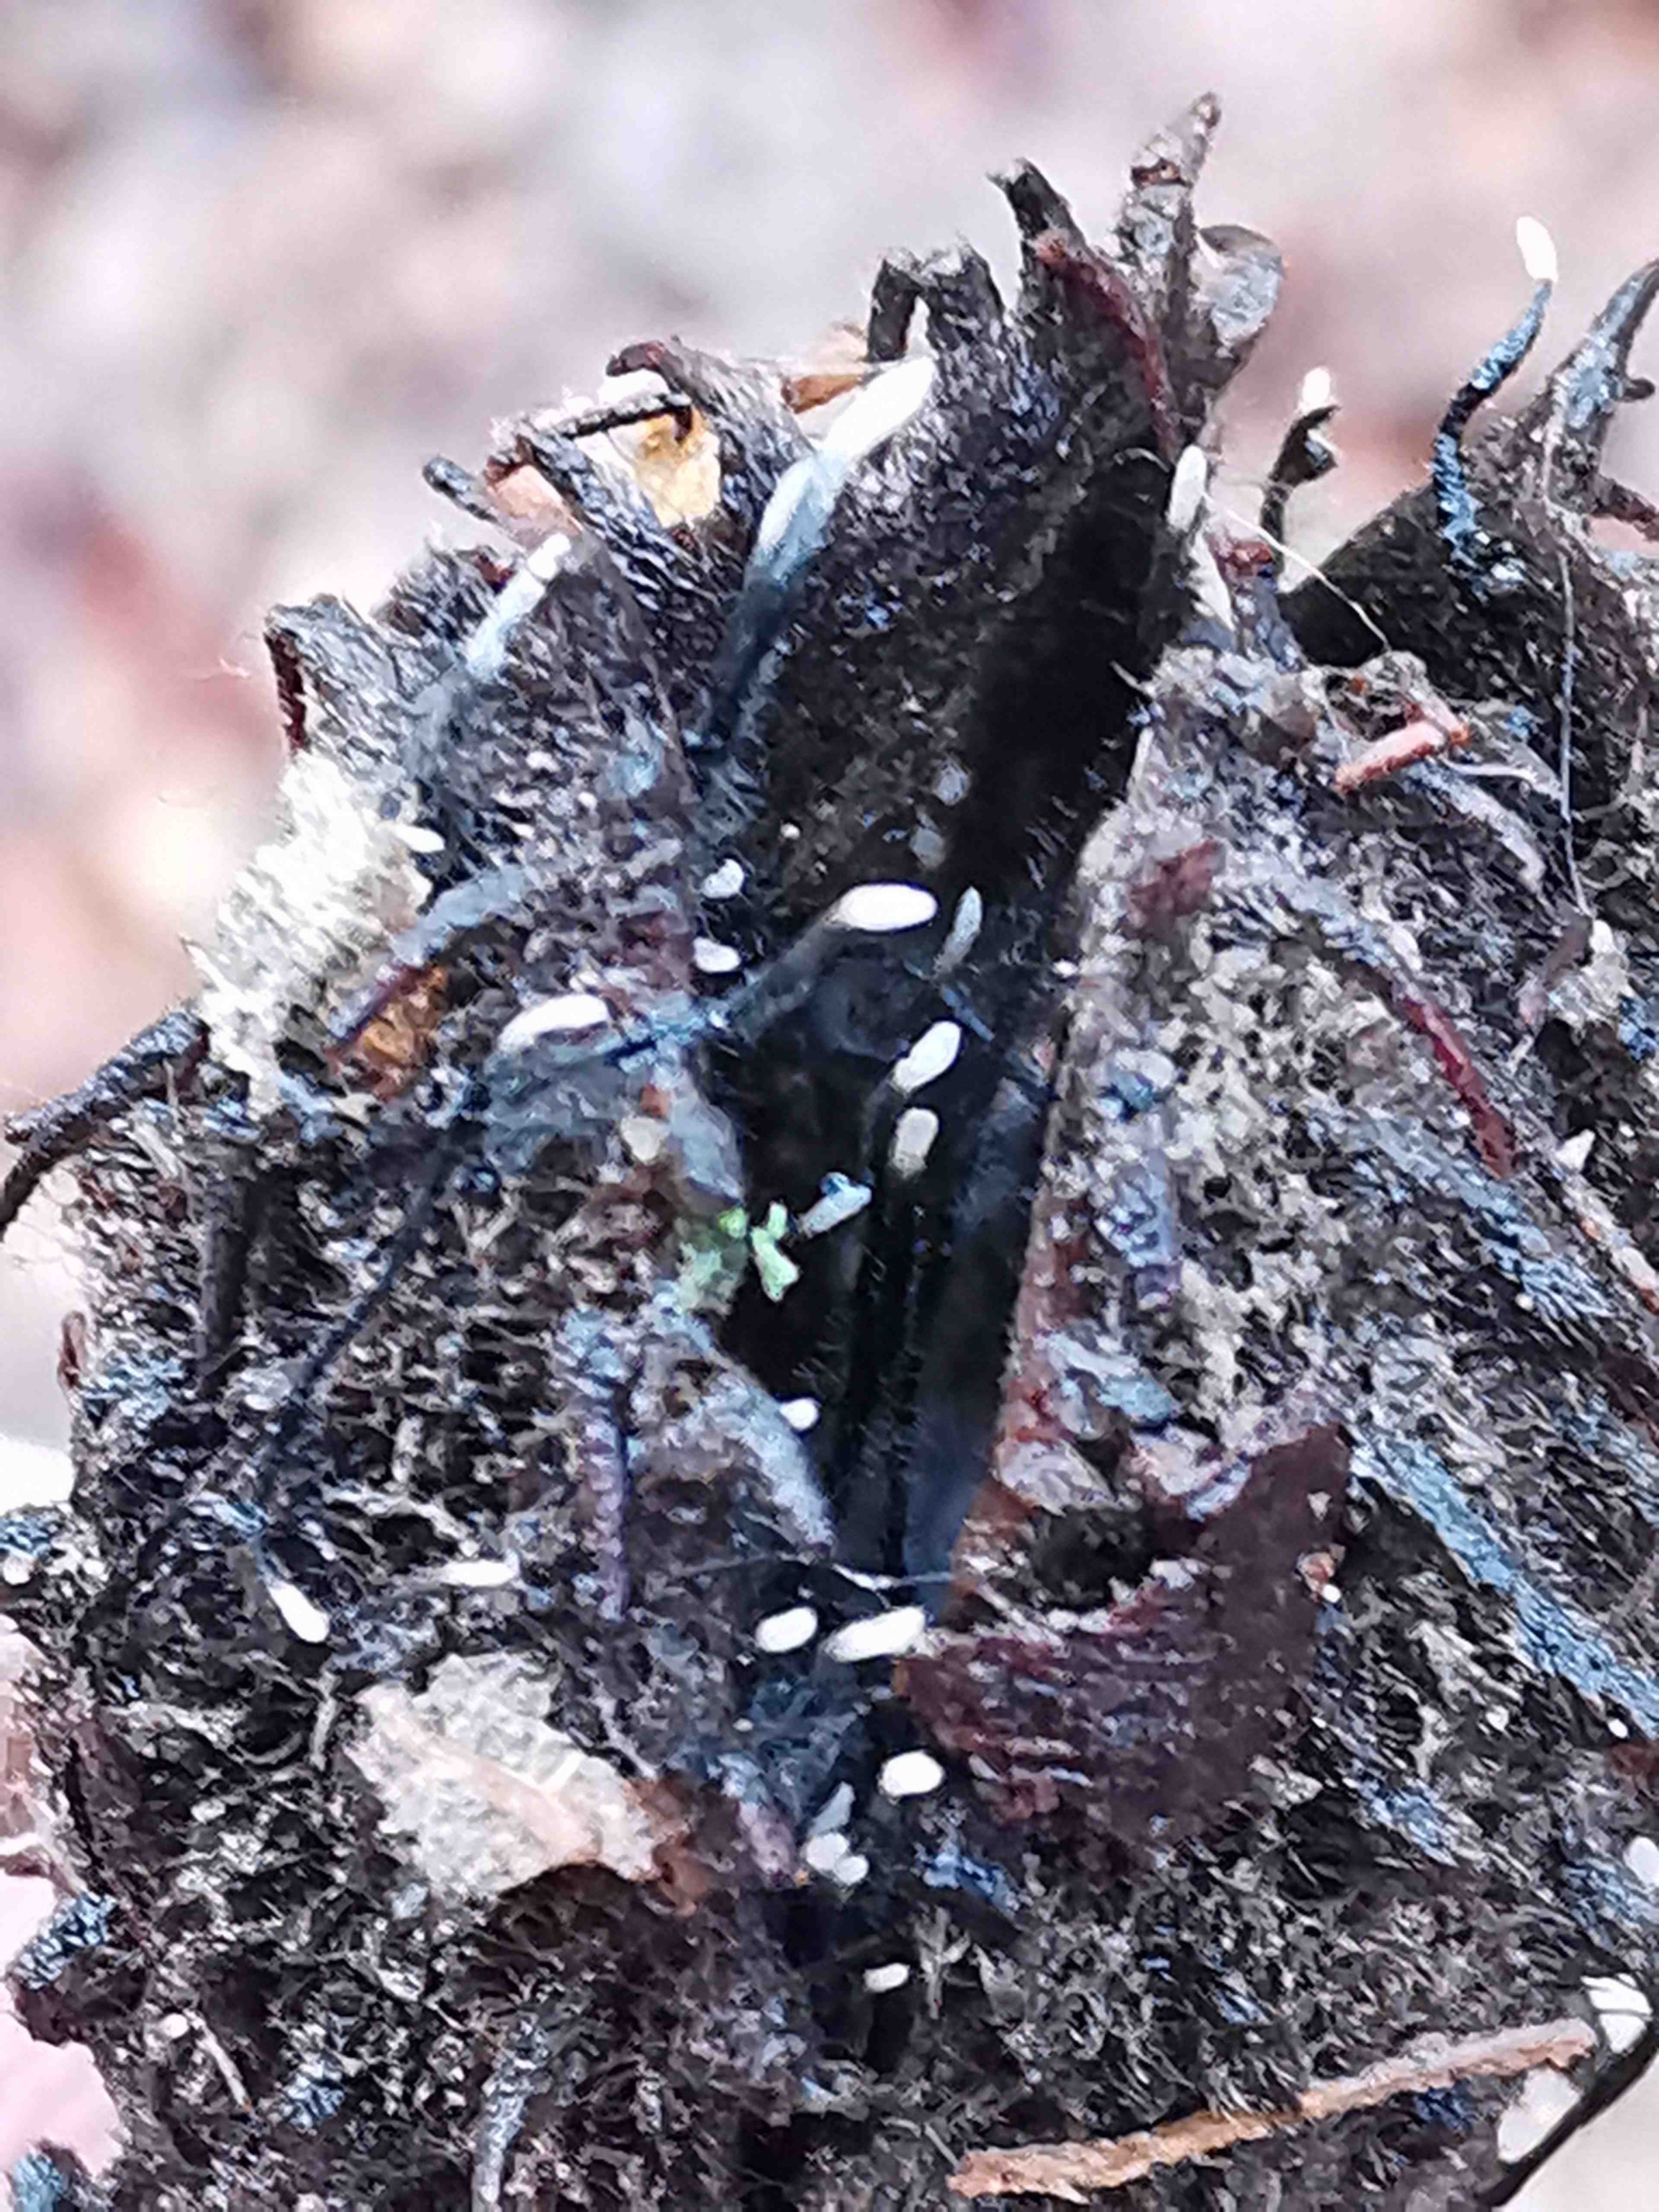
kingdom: Fungi
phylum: Ascomycota
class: Sordariomycetes
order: Xylariales
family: Xylariaceae
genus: Xylaria
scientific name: Xylaria carpophila
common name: bogskål-stødsvamp
